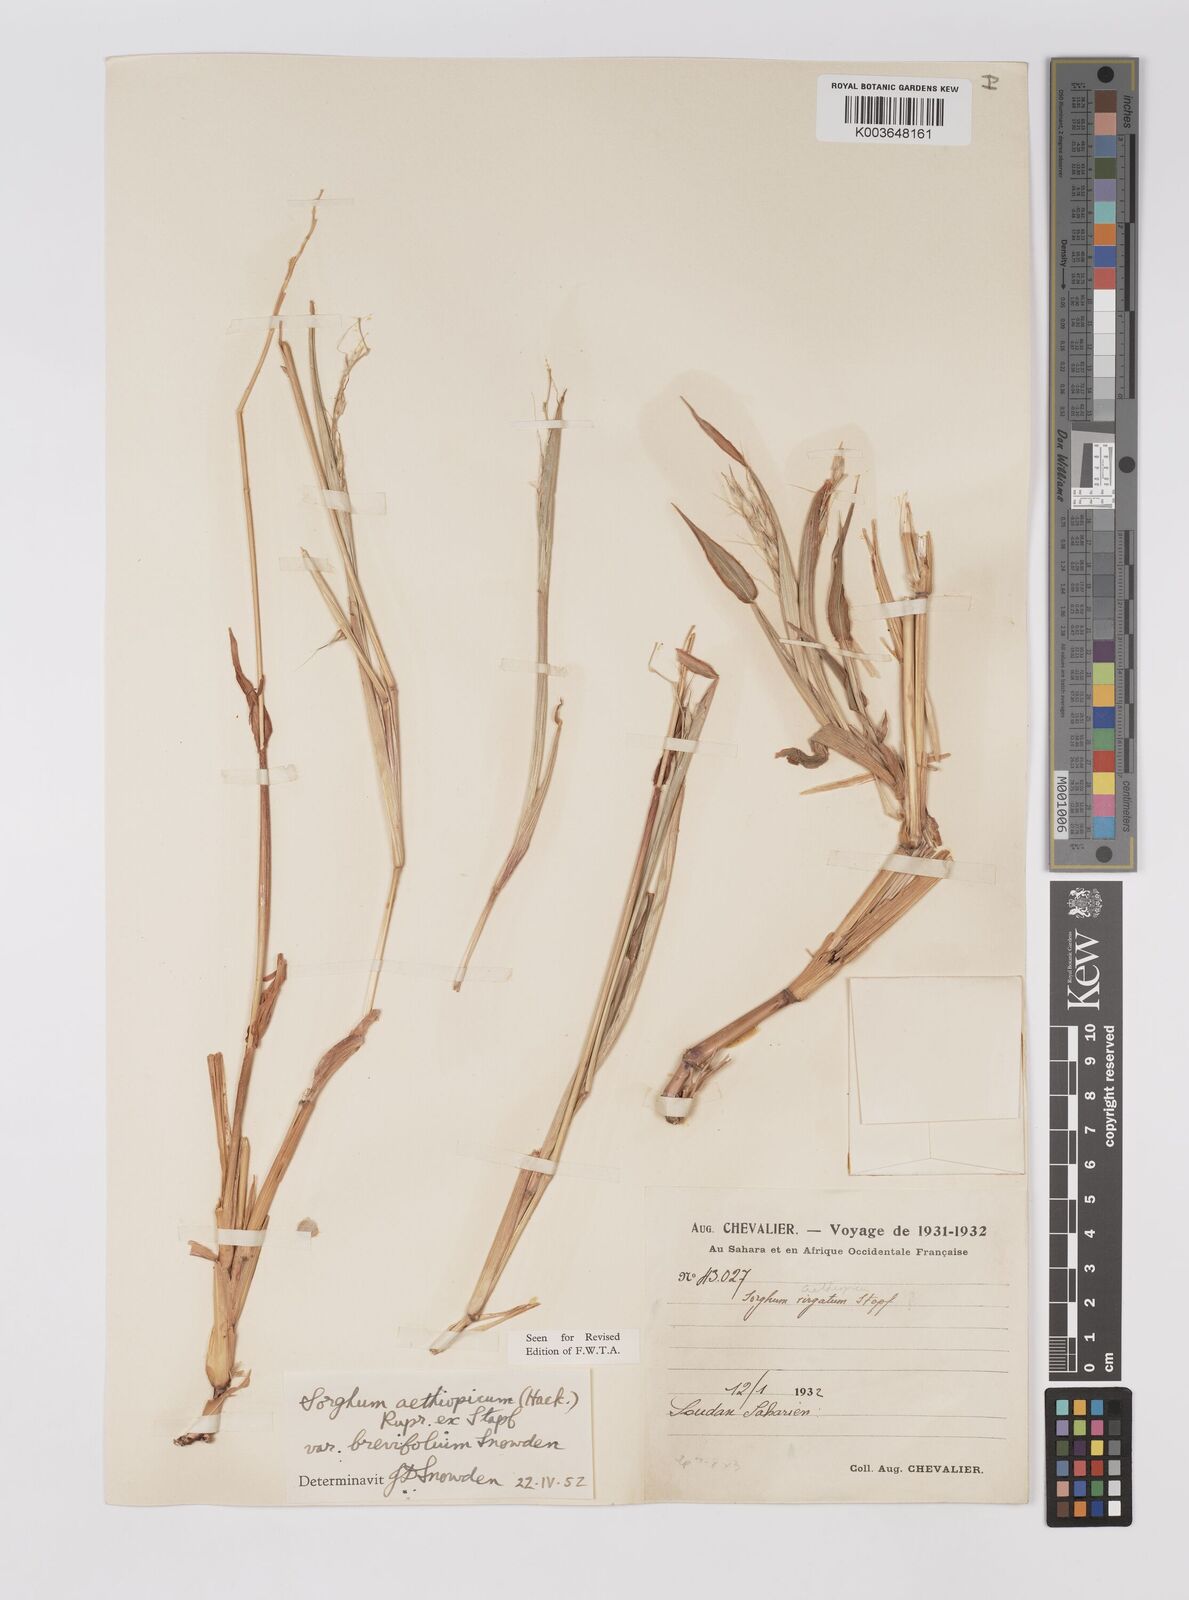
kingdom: Plantae
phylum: Tracheophyta
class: Liliopsida
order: Poales
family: Poaceae
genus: Sorghum
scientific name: Sorghum arundinaceum
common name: Sorghum
